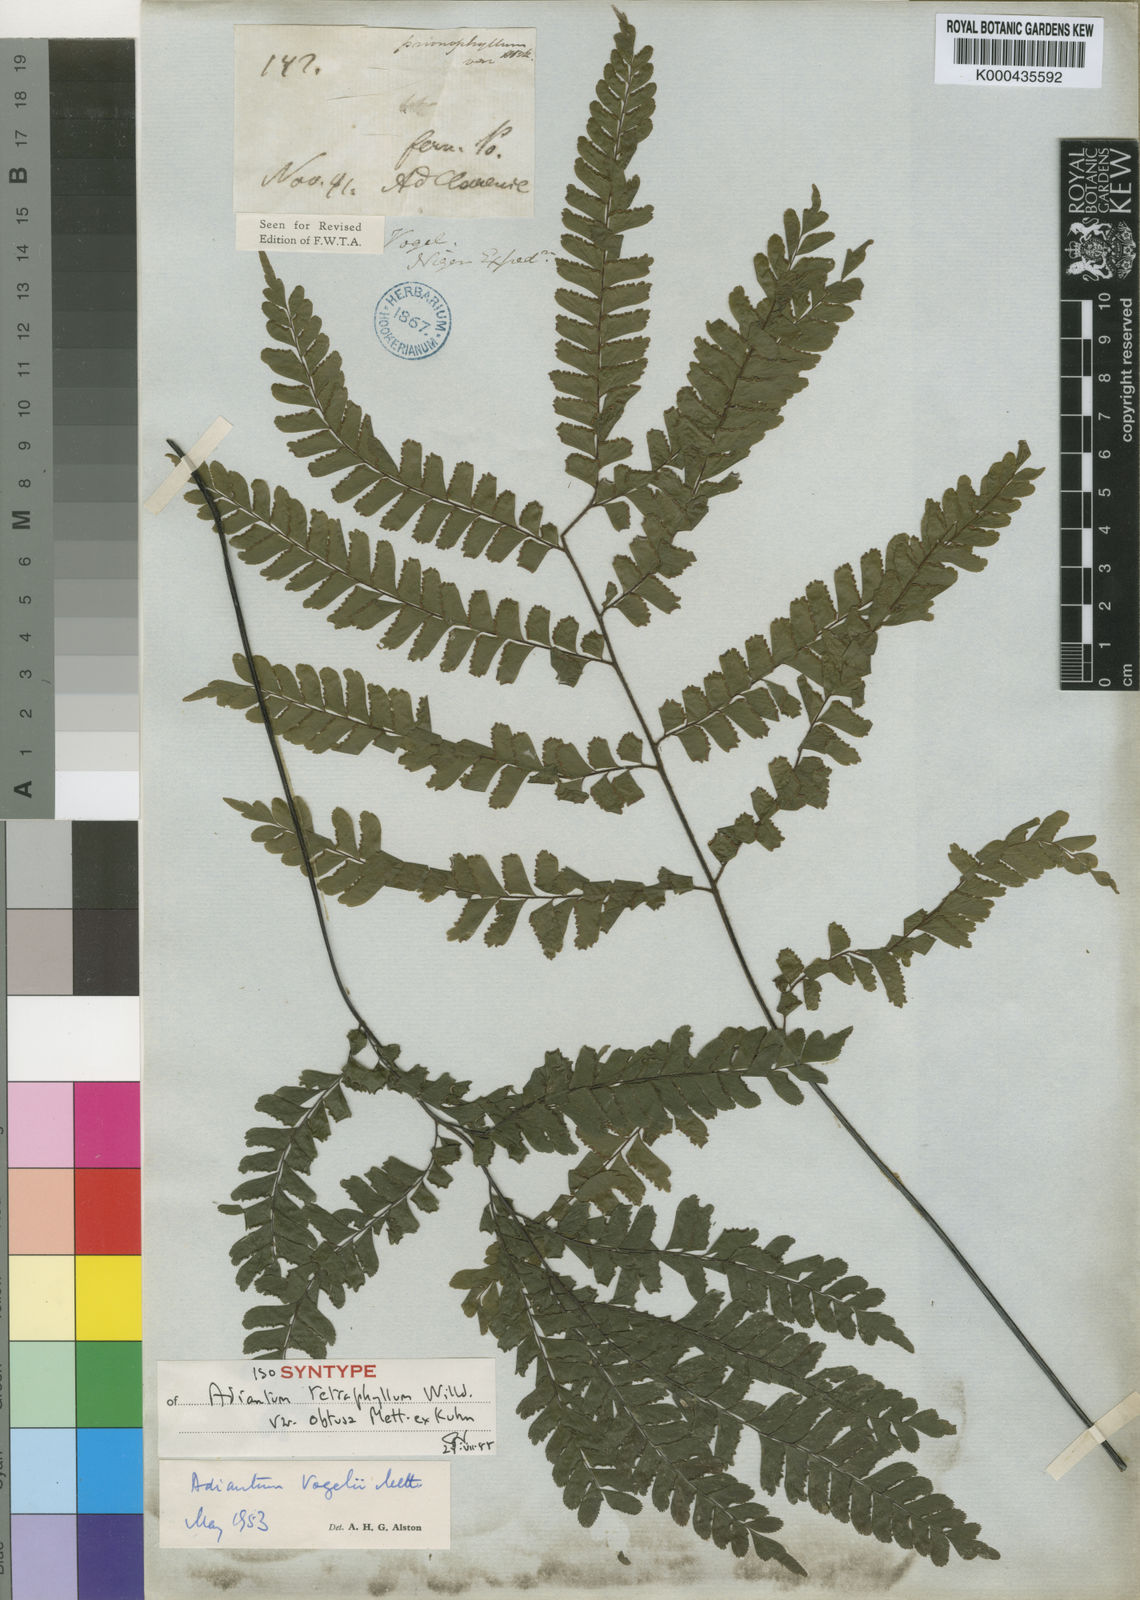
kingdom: Plantae
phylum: Tracheophyta
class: Polypodiopsida
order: Polypodiales
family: Pteridaceae
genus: Adiantum
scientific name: Adiantum
